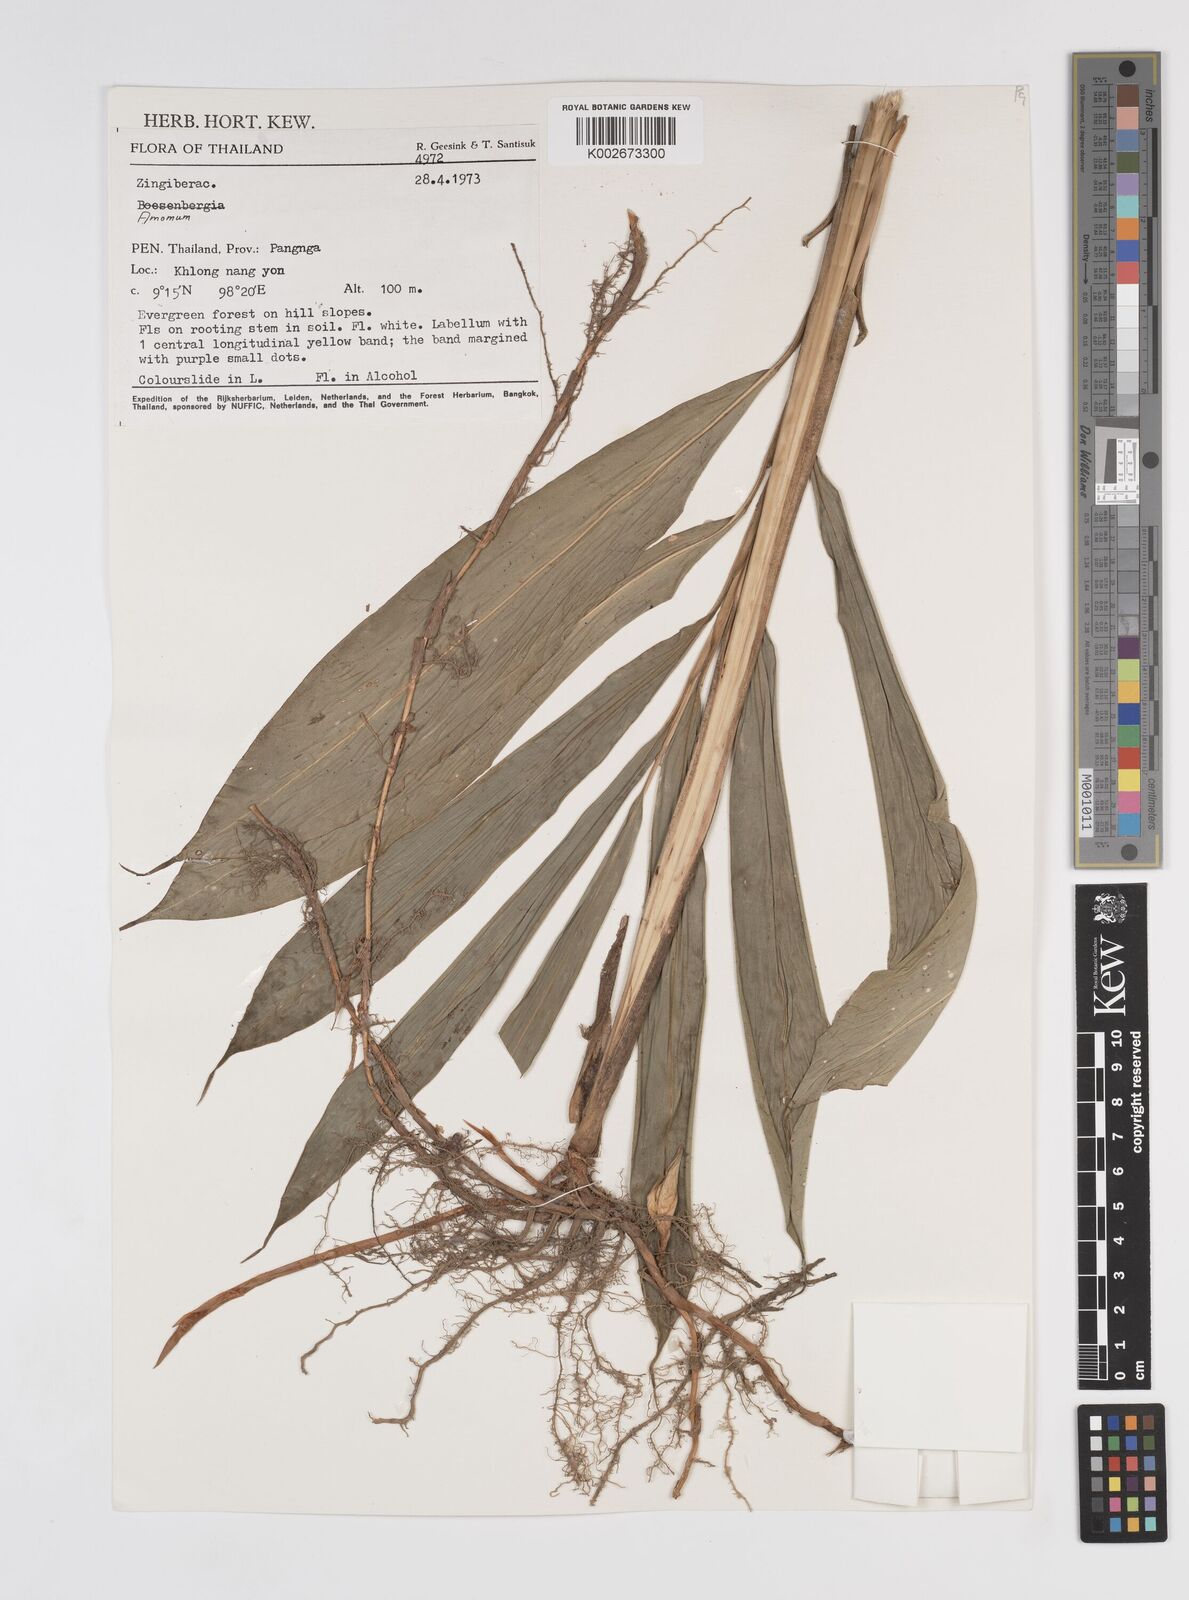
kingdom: Plantae
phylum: Tracheophyta
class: Liliopsida
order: Zingiberales
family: Zingiberaceae
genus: Amomum
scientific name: Amomum
